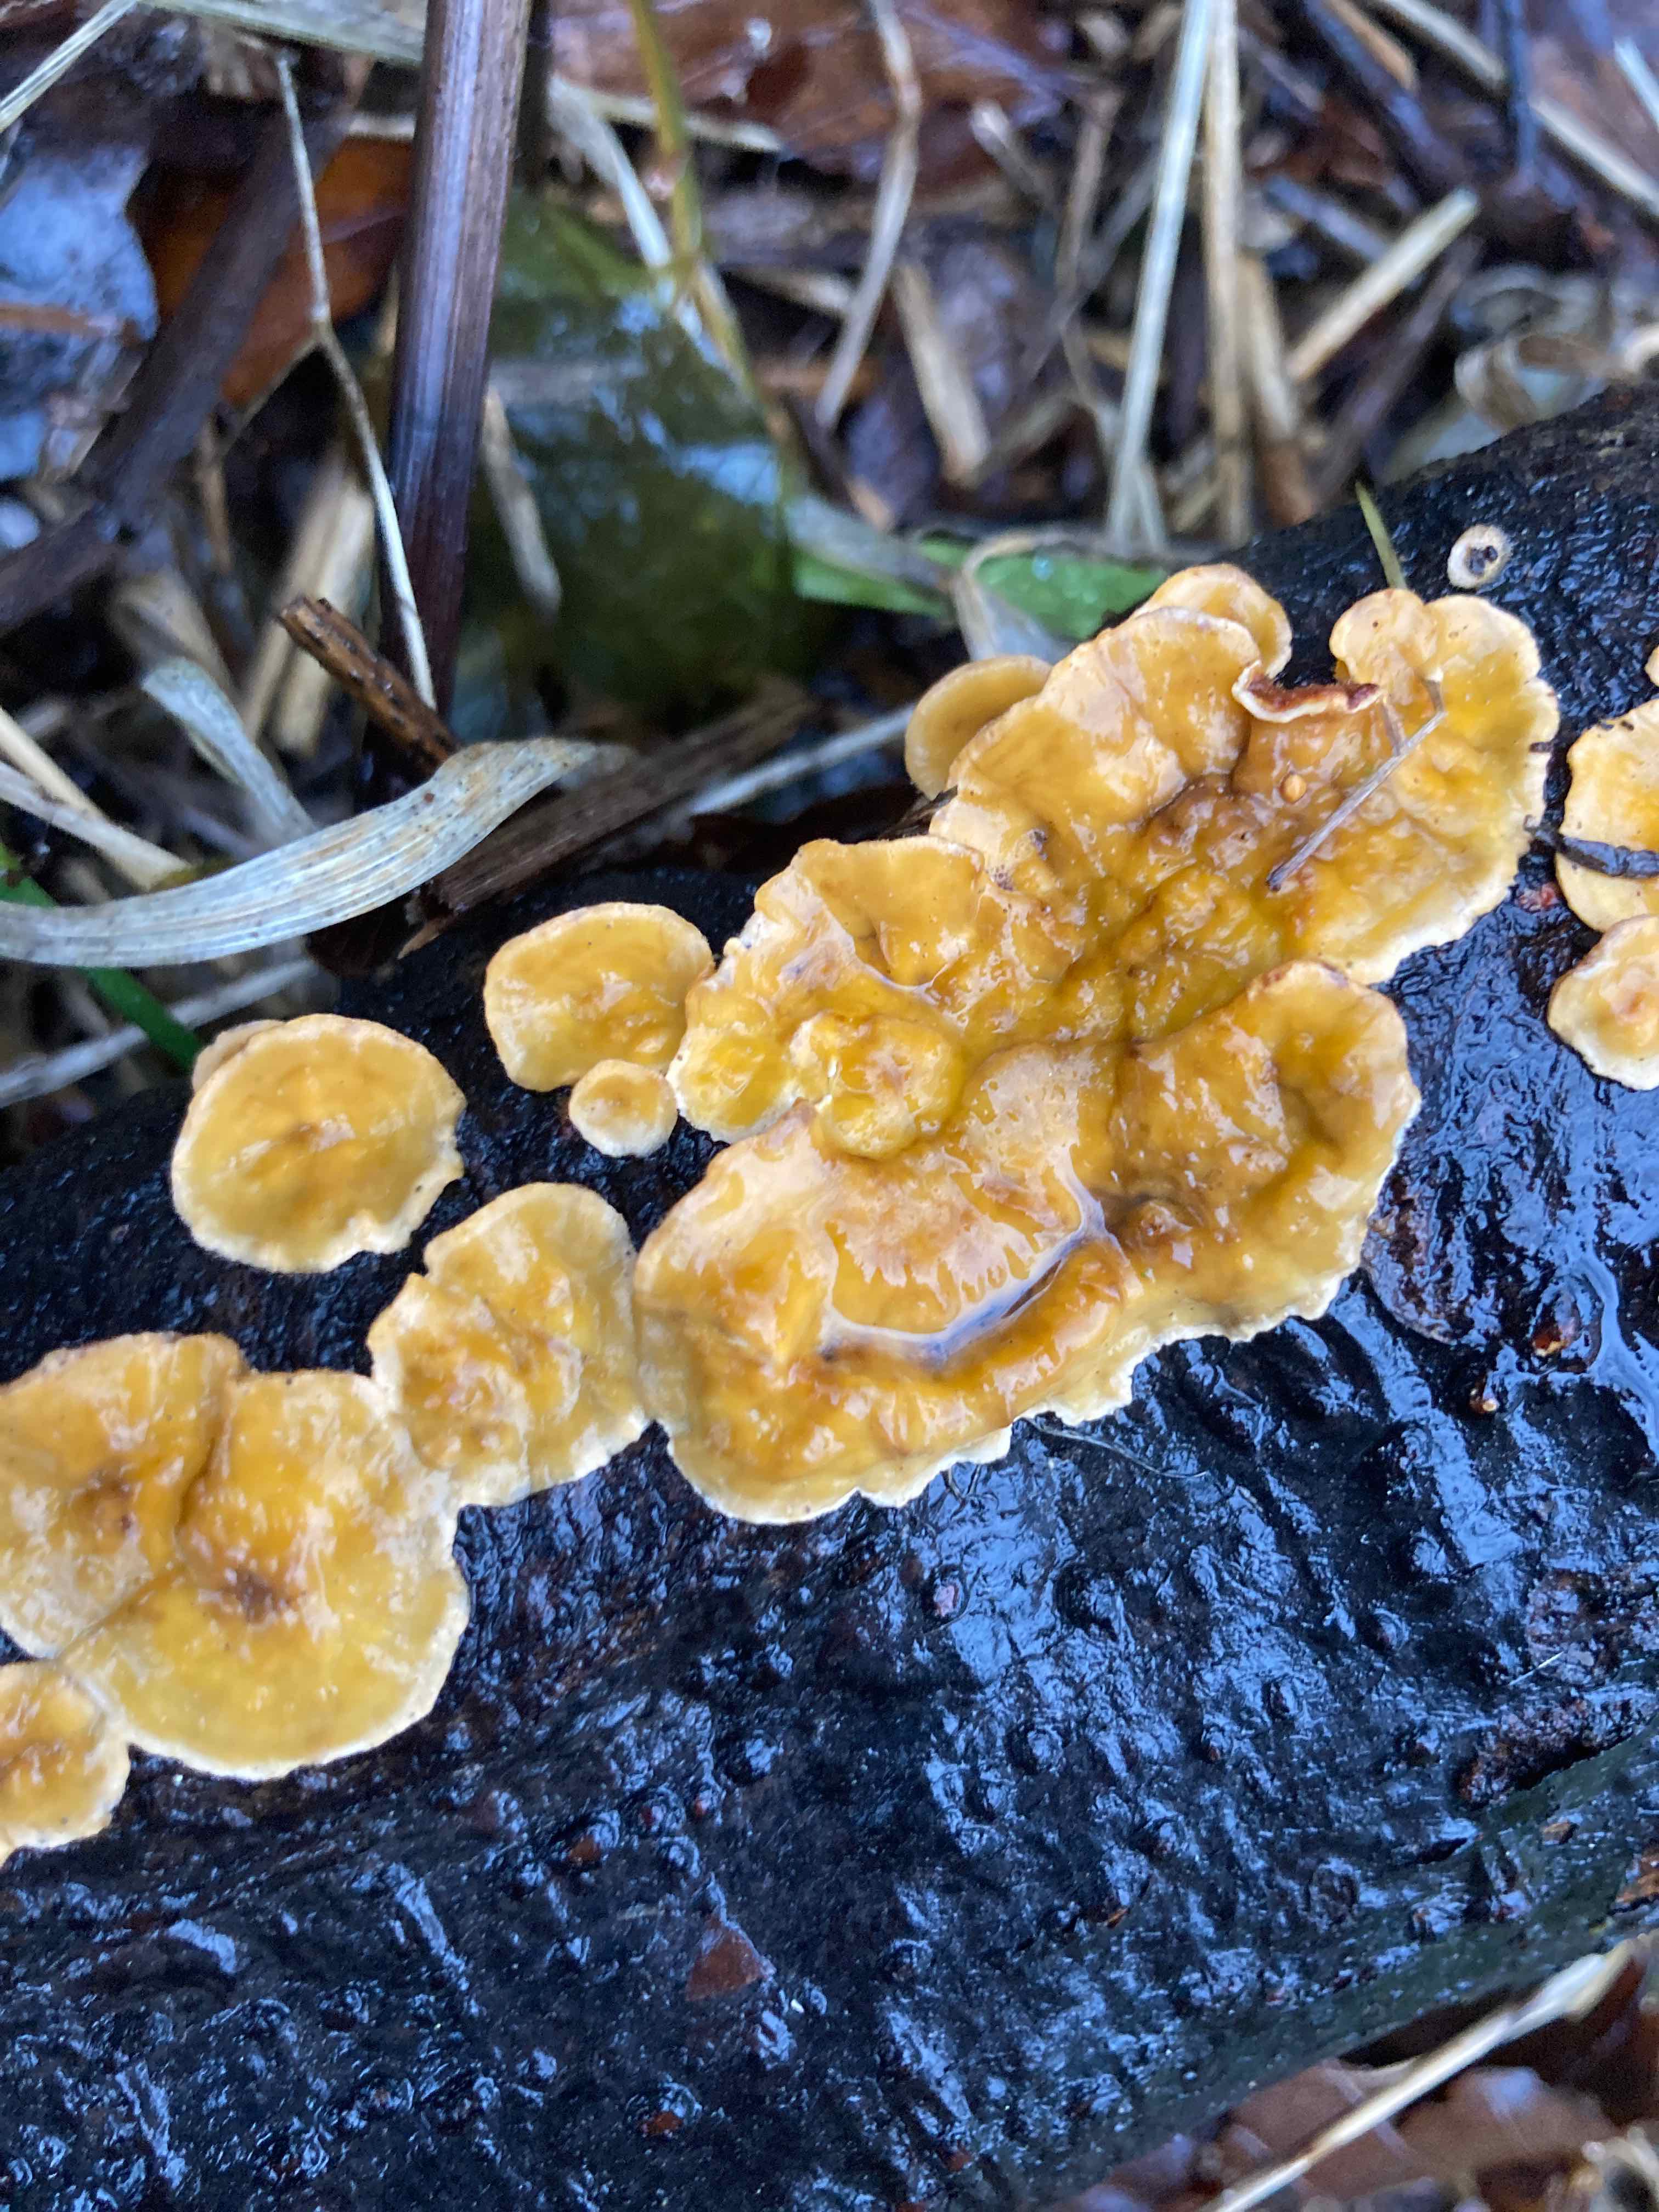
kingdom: Fungi
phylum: Basidiomycota
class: Agaricomycetes
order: Russulales
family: Stereaceae
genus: Stereum
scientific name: Stereum hirsutum
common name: håret lædersvamp
